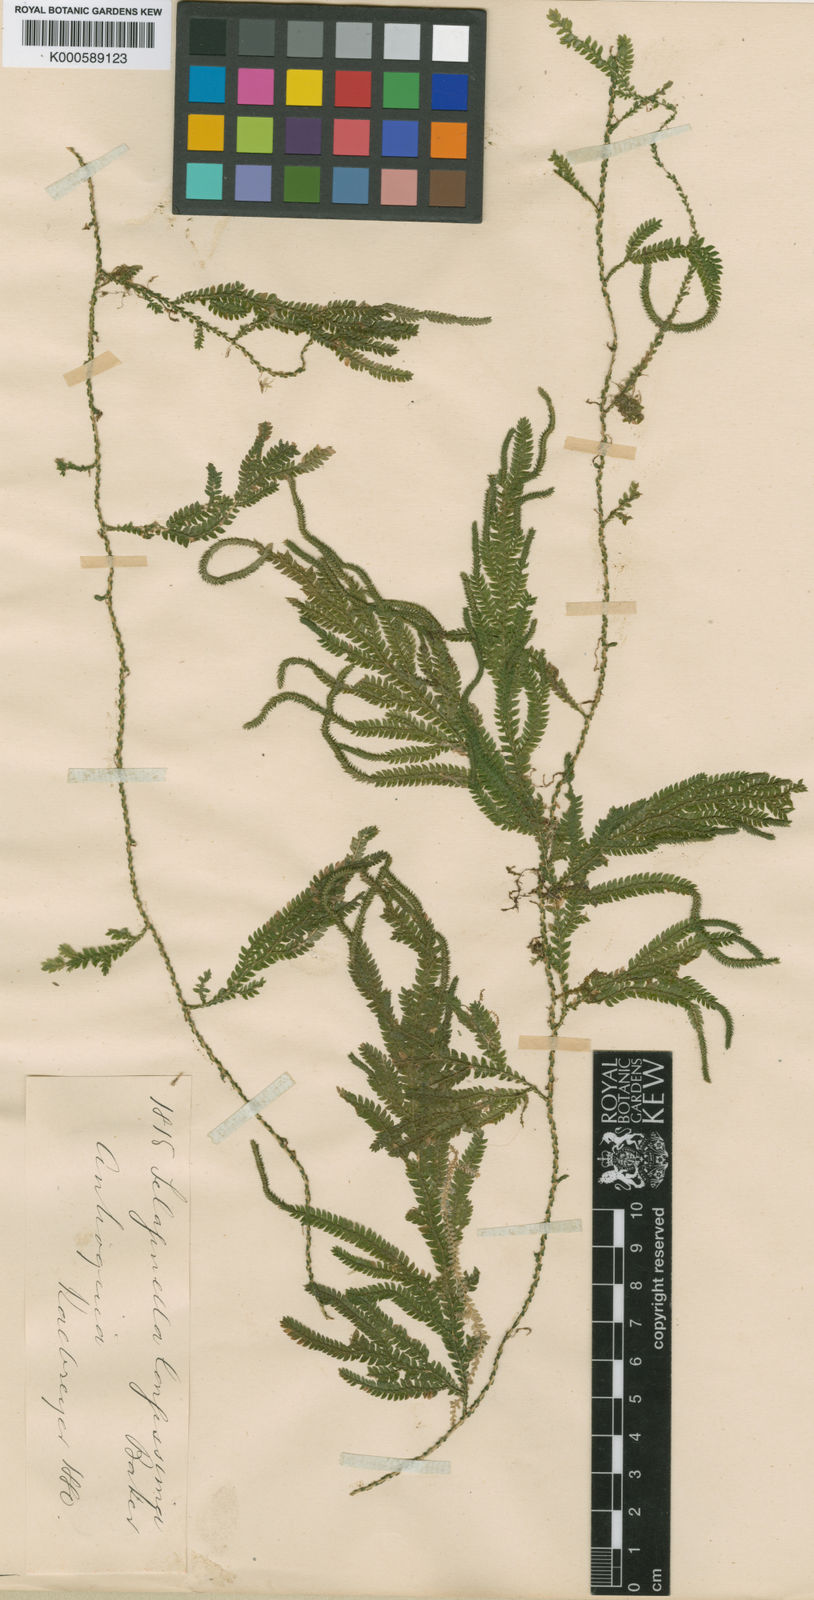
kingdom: Plantae
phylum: Tracheophyta
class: Lycopodiopsida
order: Selaginellales
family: Selaginellaceae
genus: Selaginella
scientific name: Selaginella longissima
